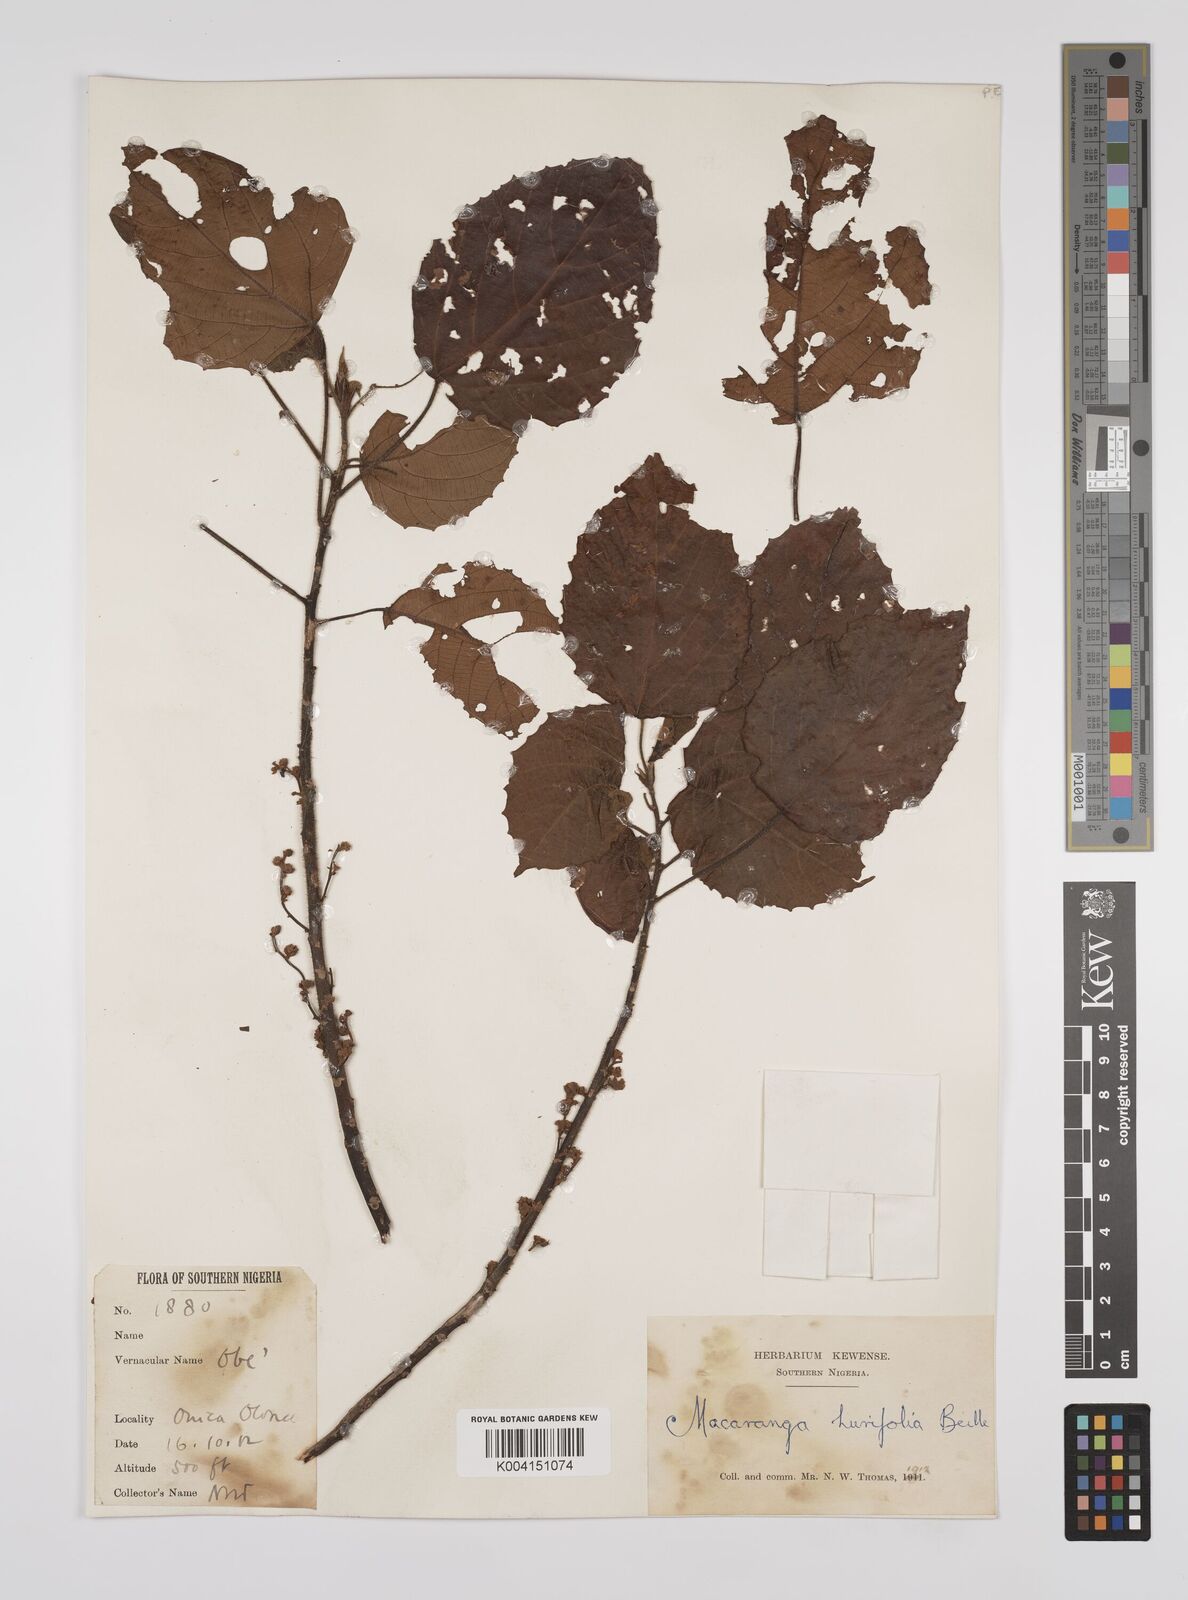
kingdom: Plantae
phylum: Tracheophyta
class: Magnoliopsida
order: Malpighiales
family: Euphorbiaceae
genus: Macaranga
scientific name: Macaranga hurifolia
